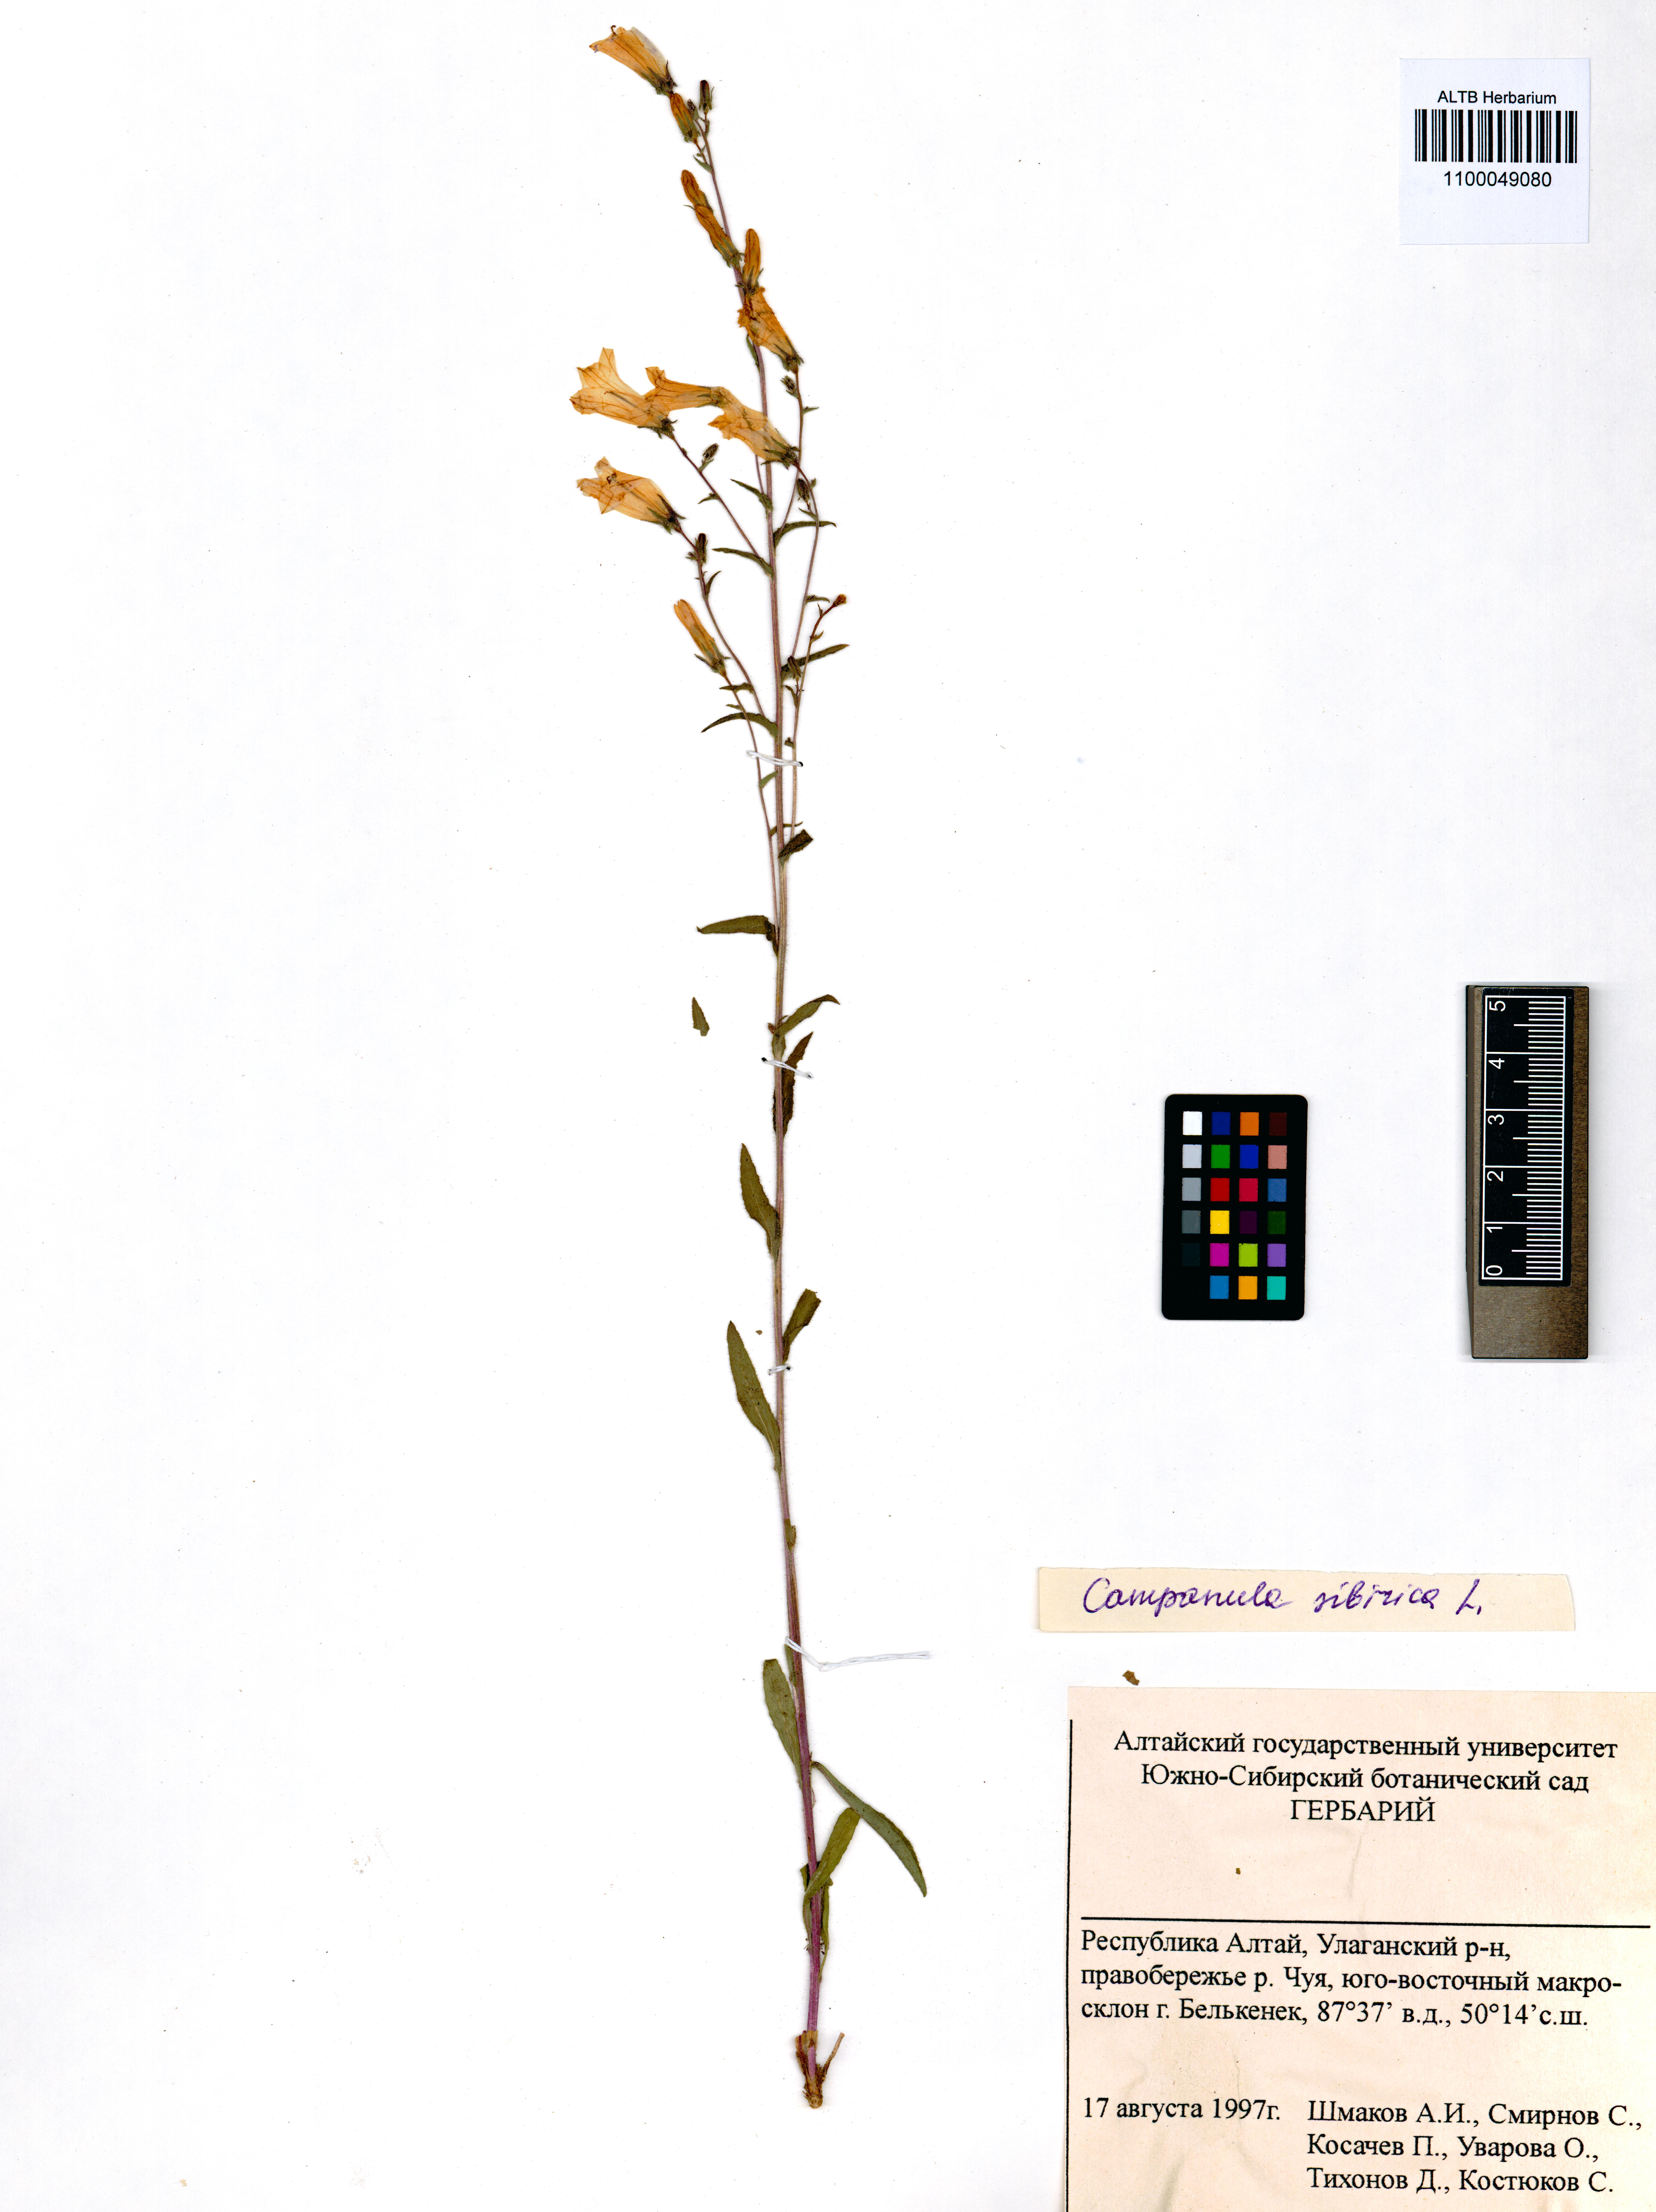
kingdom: Plantae
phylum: Tracheophyta
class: Magnoliopsida
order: Asterales
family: Campanulaceae
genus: Campanula
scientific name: Campanula sibirica
